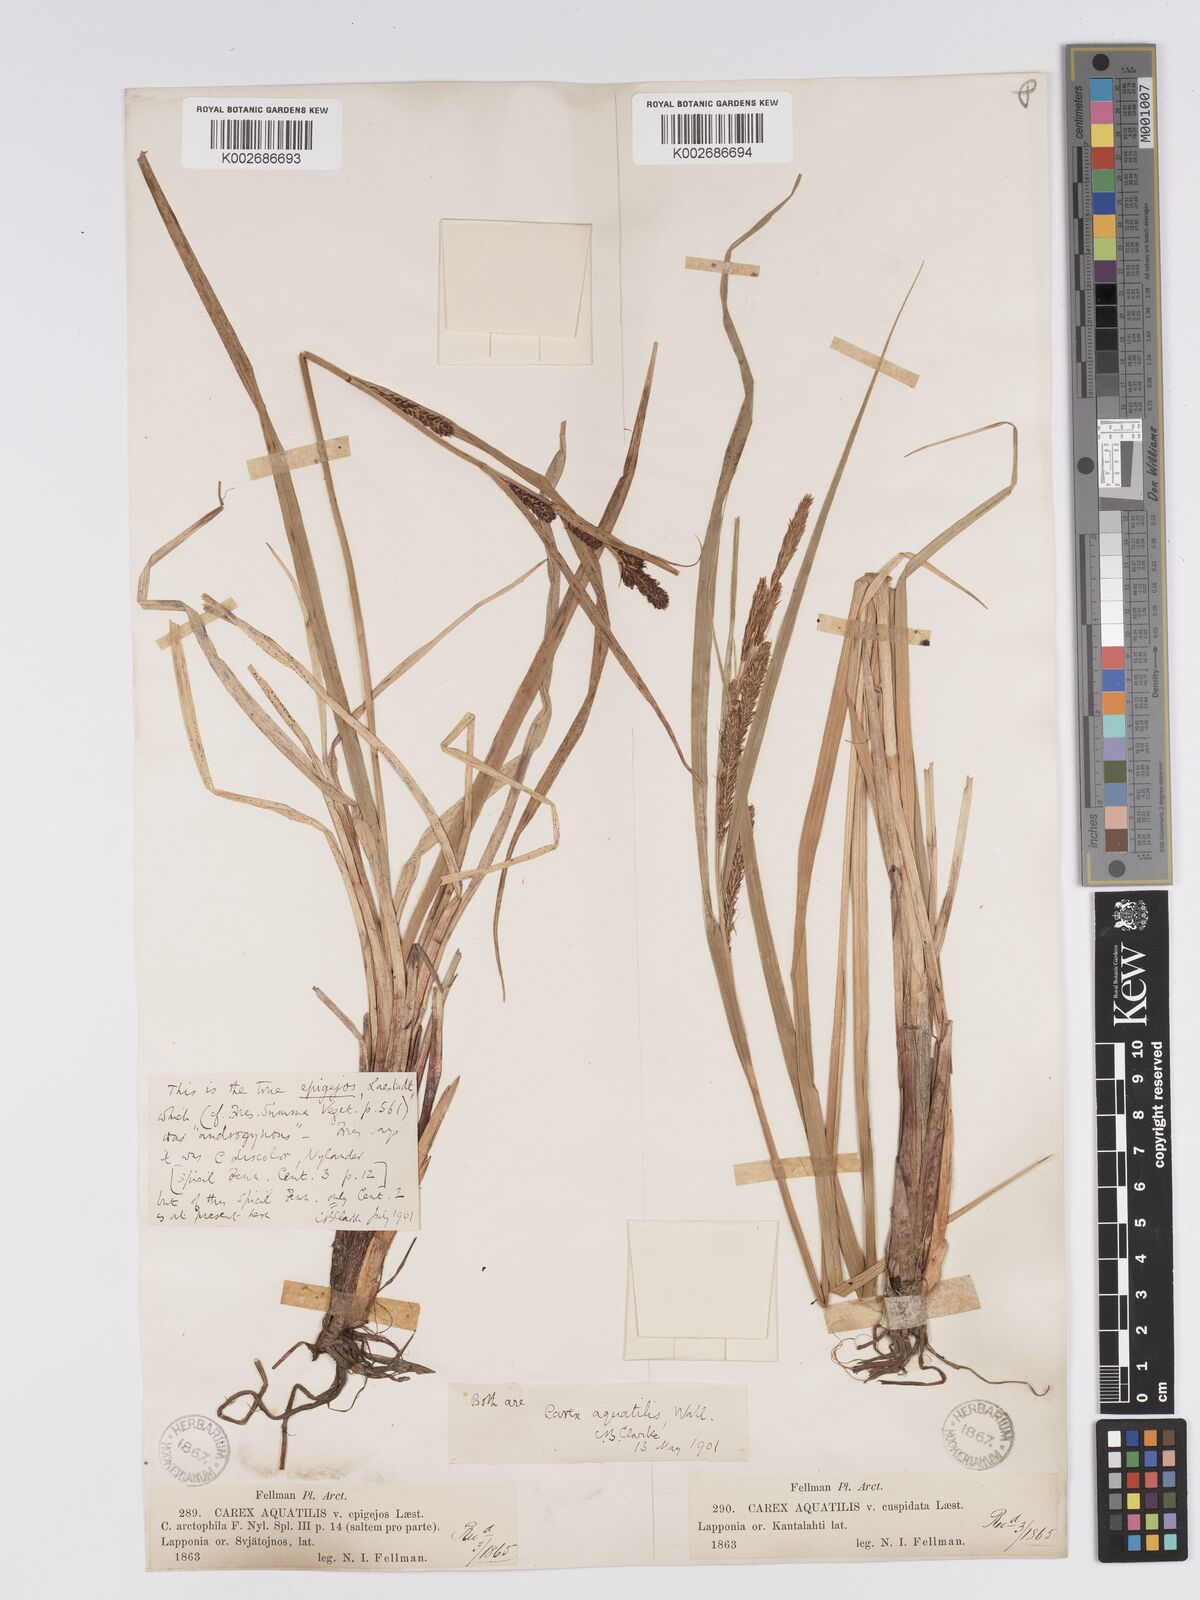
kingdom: Plantae
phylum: Tracheophyta
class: Liliopsida
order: Poales
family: Cyperaceae
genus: Carex
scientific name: Carex aquatilis
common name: Water sedge
